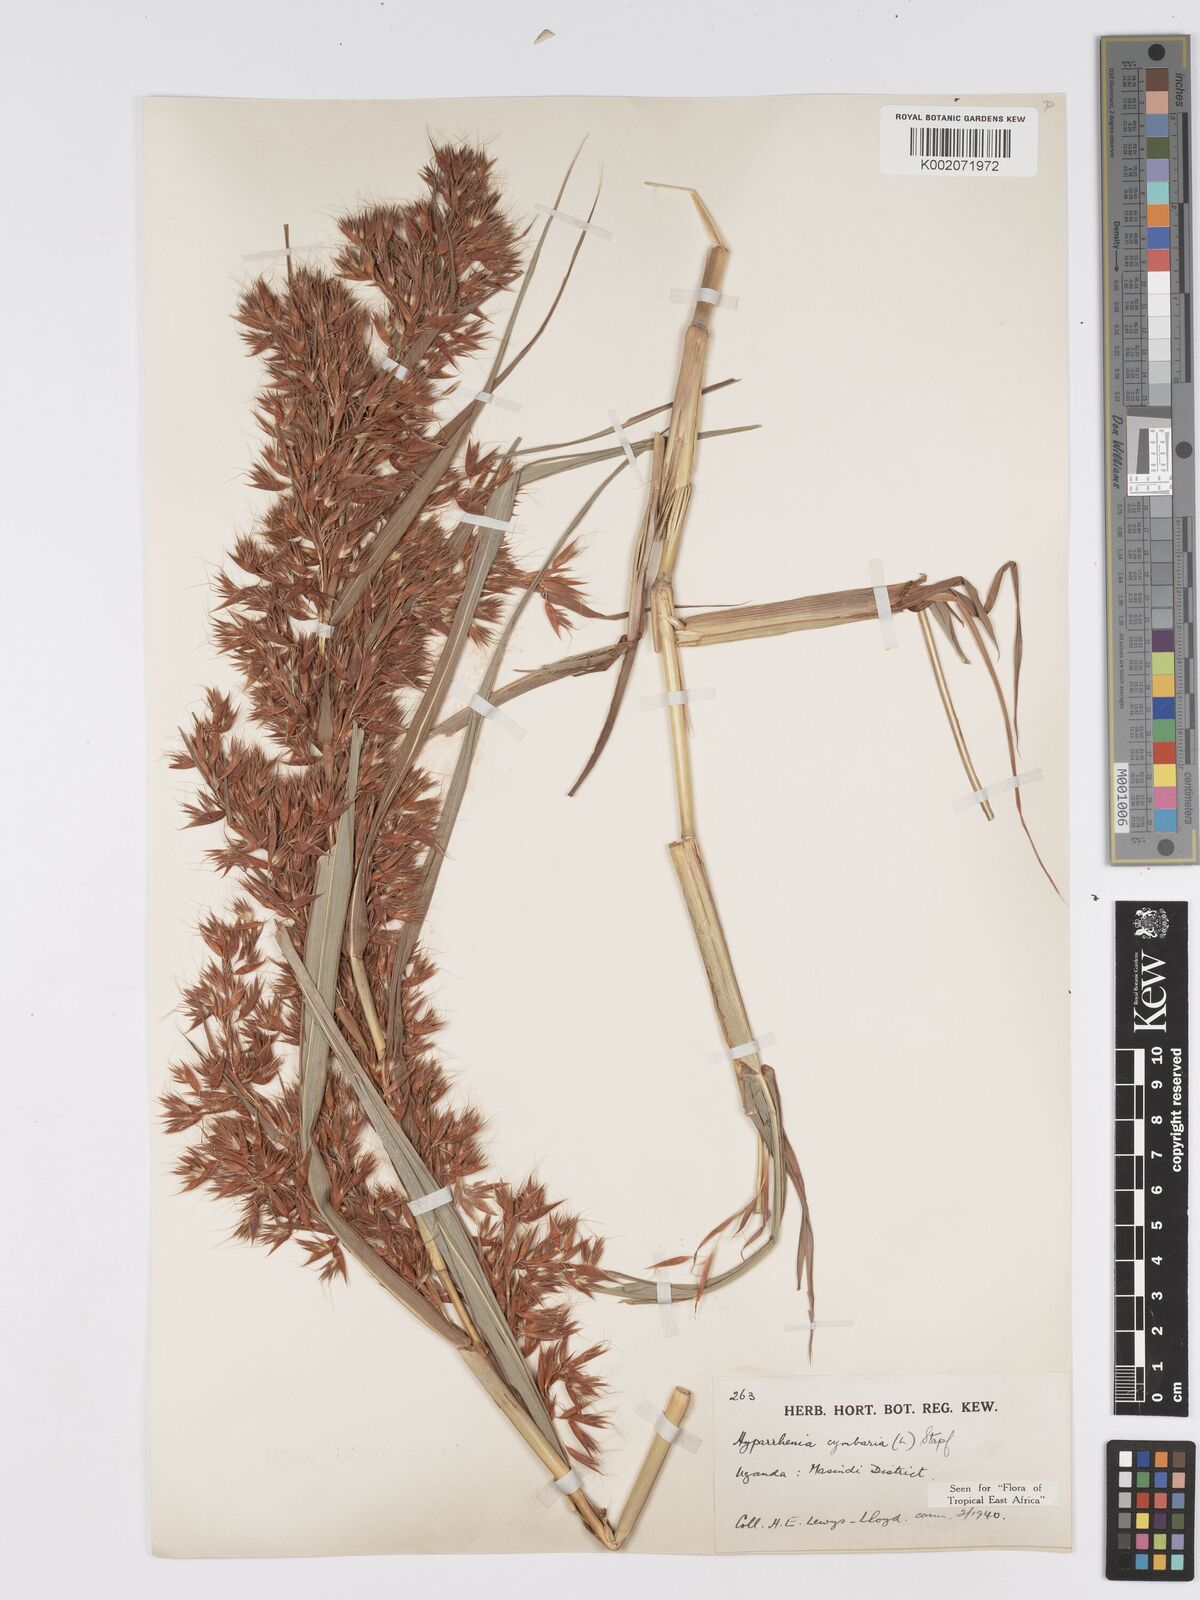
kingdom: Plantae
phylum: Tracheophyta
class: Liliopsida
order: Poales
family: Poaceae
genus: Hyparrhenia
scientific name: Hyparrhenia cymbaria
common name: Boat thatching grass
